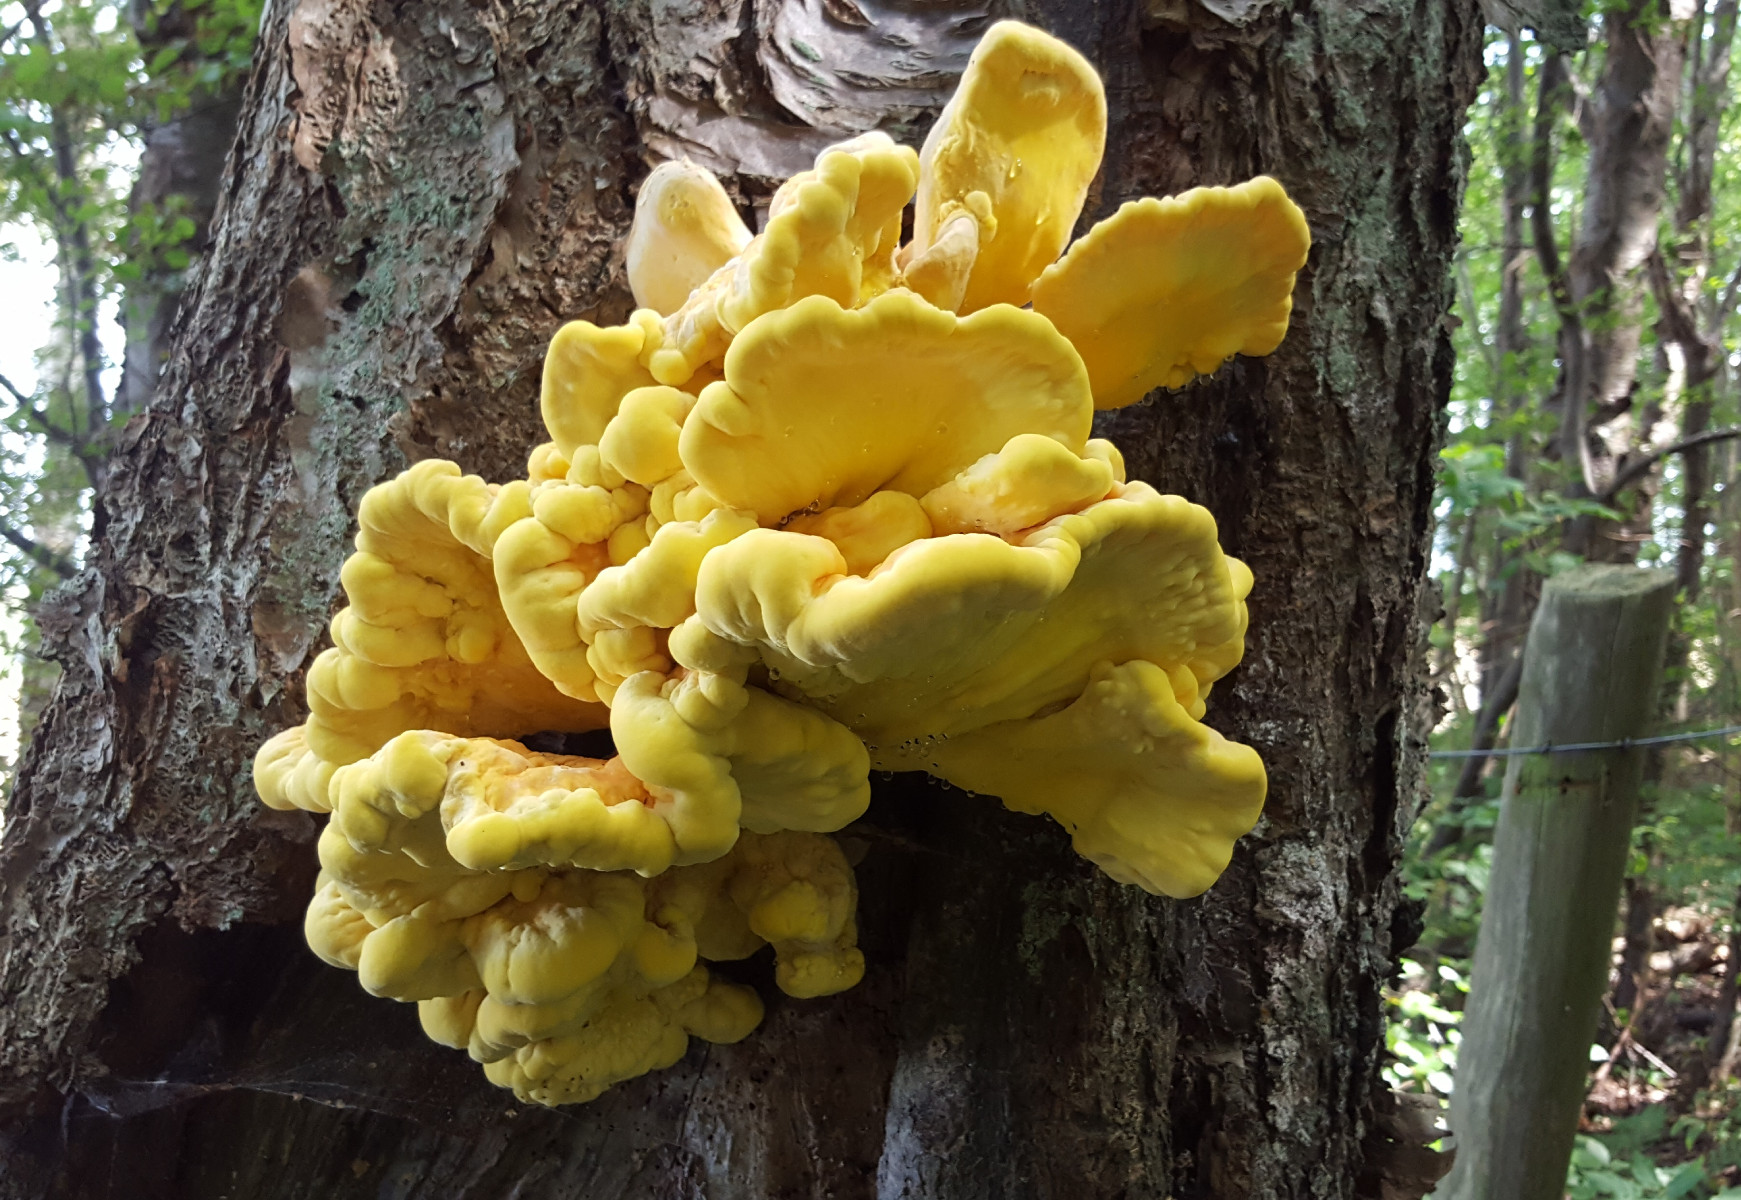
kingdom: Fungi
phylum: Basidiomycota
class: Agaricomycetes
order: Polyporales
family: Laetiporaceae
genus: Laetiporus
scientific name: Laetiporus sulphureus
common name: svovlporesvamp
